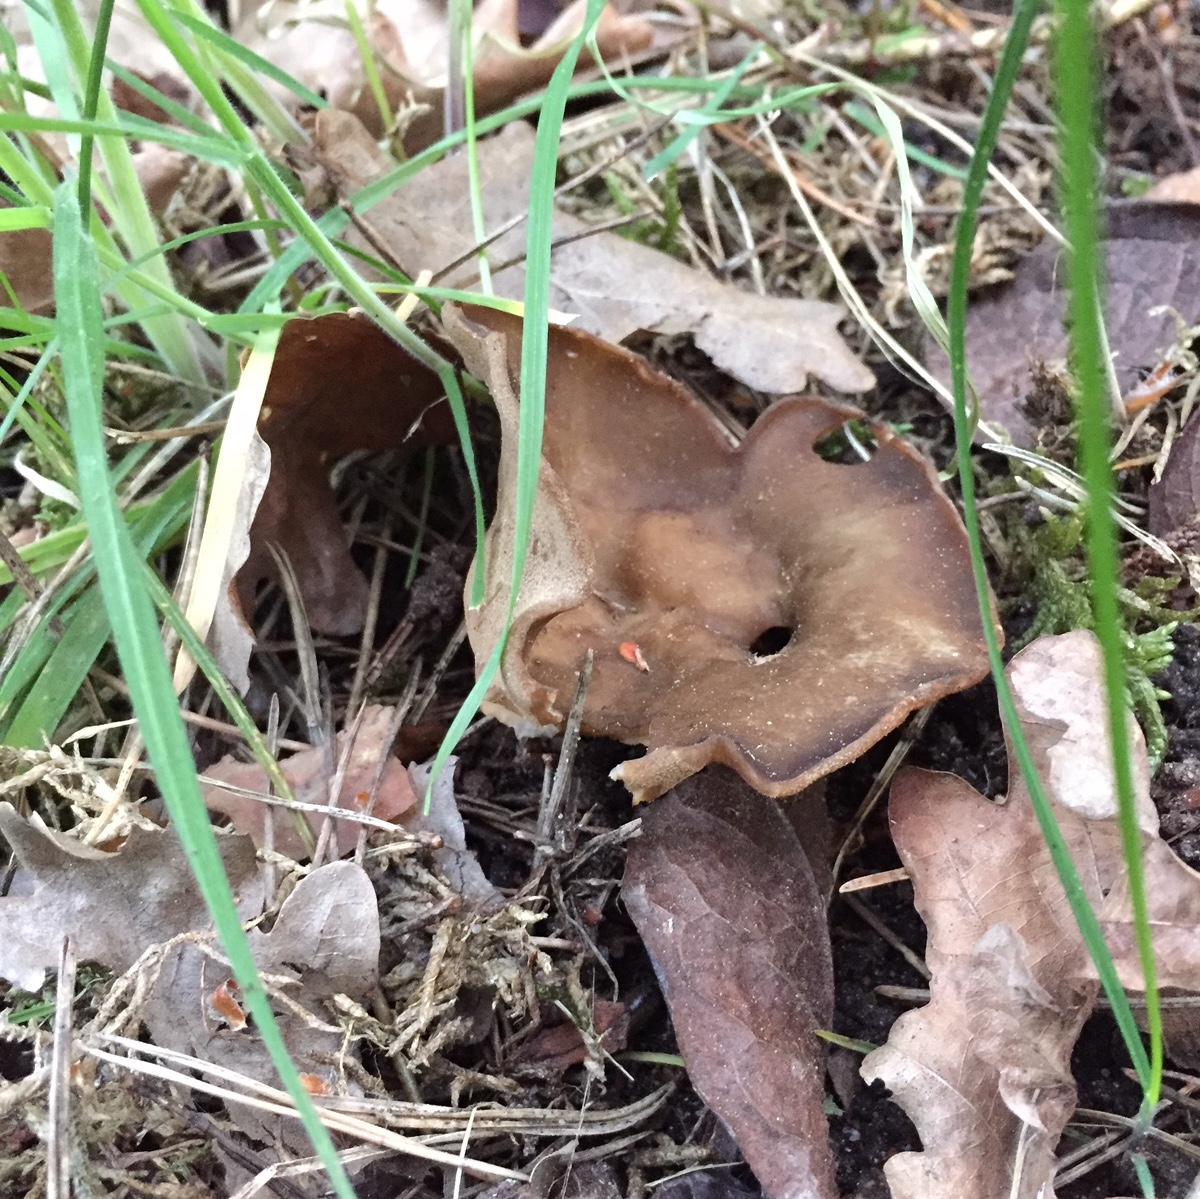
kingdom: Fungi
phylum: Ascomycota
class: Pezizomycetes
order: Pezizales
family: Helvellaceae
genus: Helvella
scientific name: Helvella acetabulum
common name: pokal-foldhat
